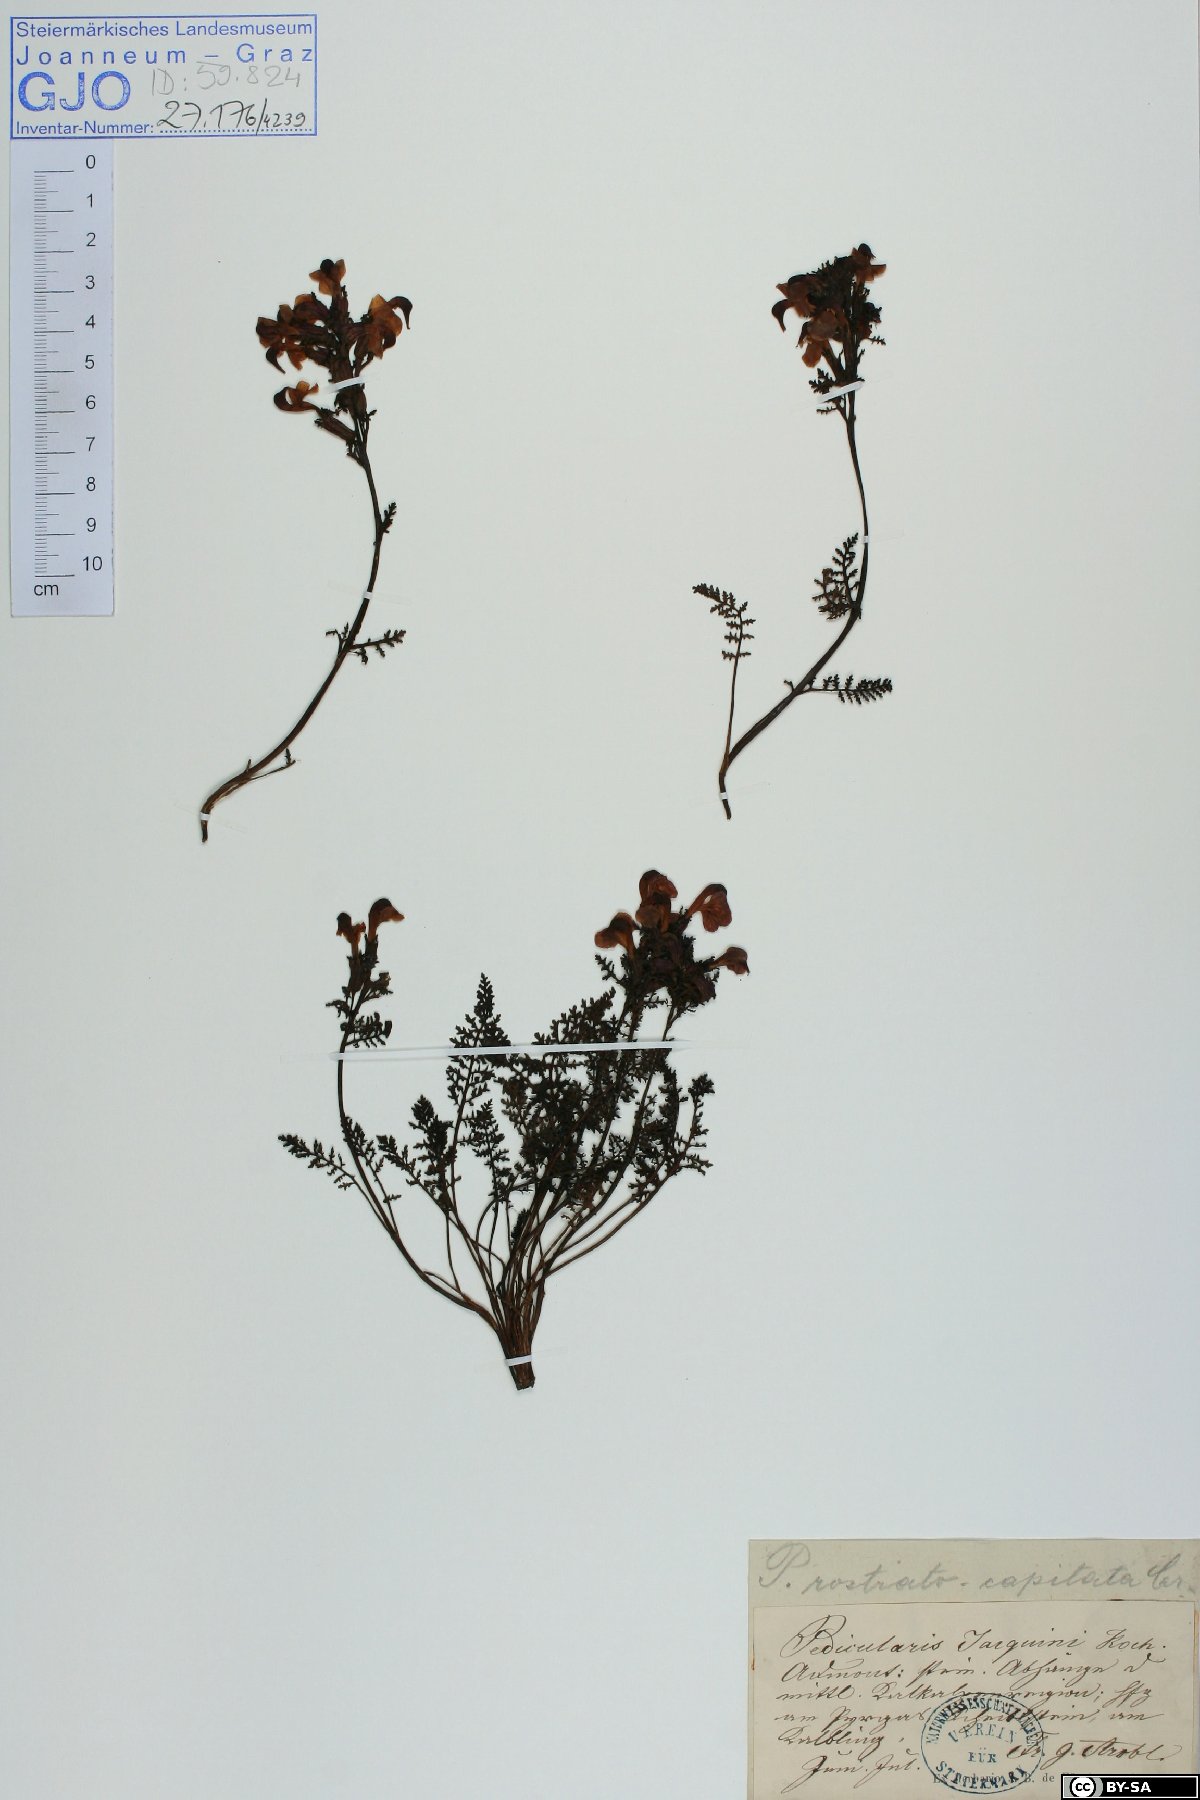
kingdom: Plantae
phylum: Tracheophyta
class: Magnoliopsida
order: Lamiales
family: Orobanchaceae
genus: Pedicularis
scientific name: Pedicularis rostratocapitata
